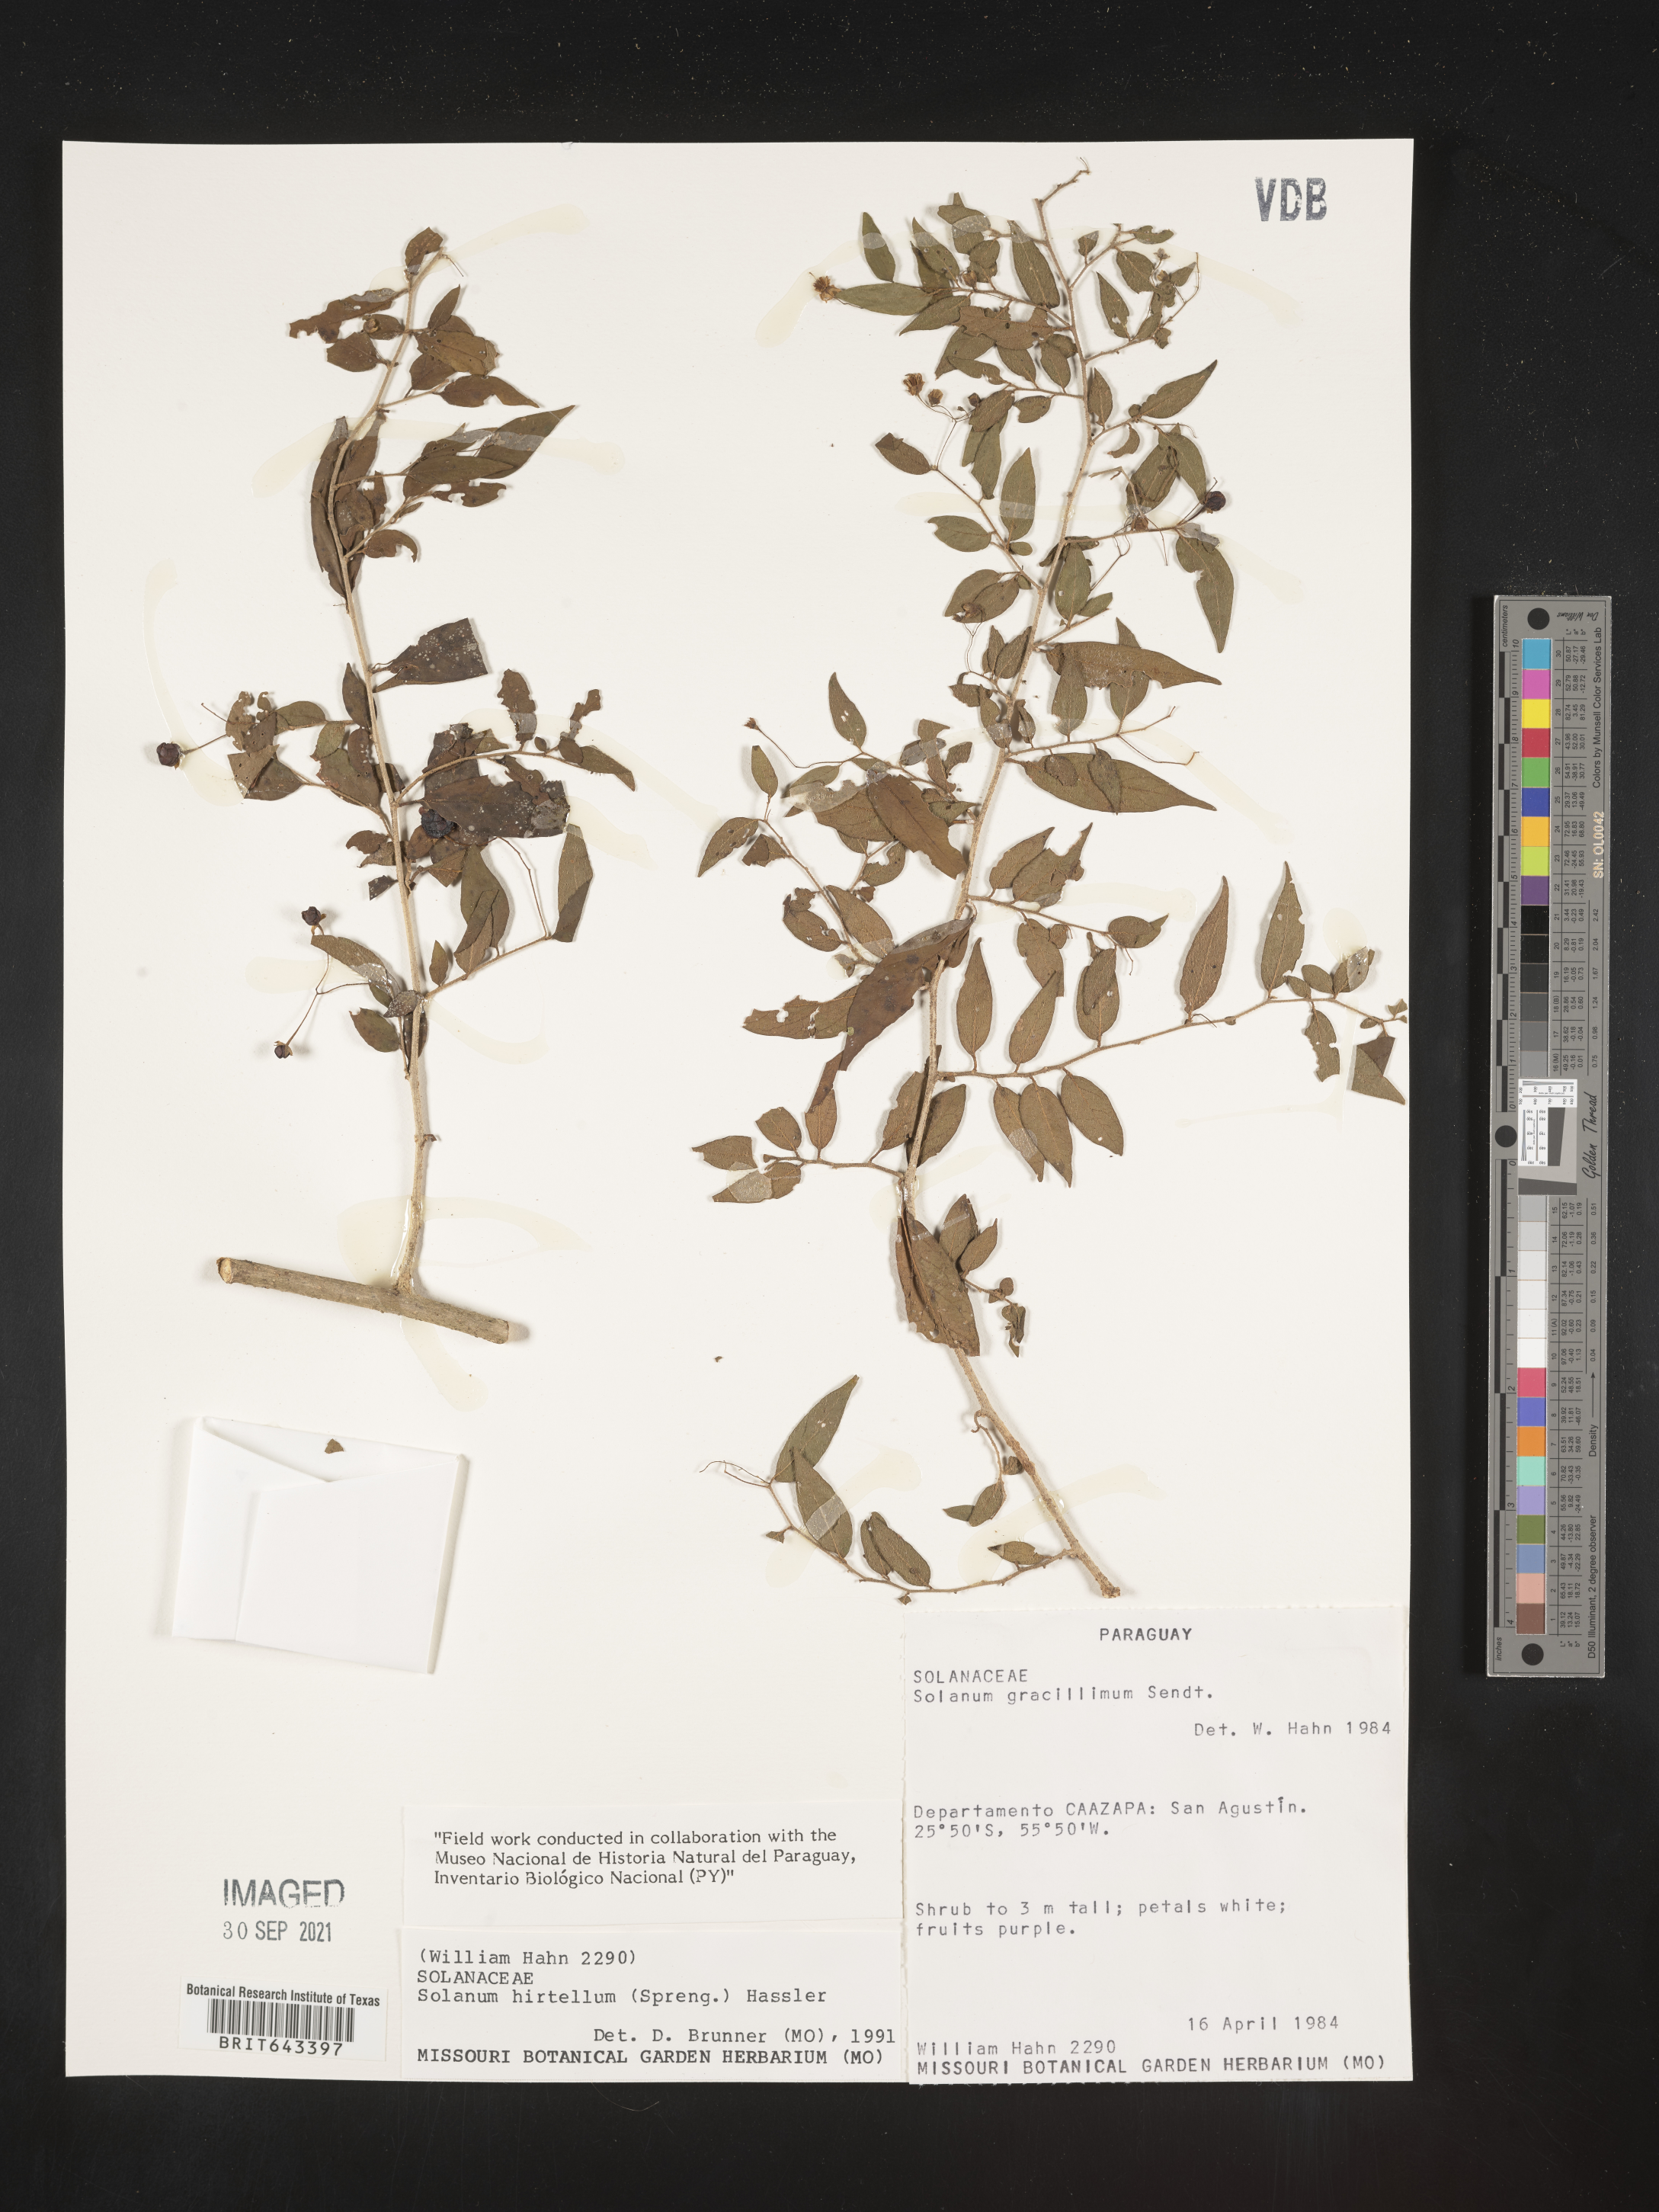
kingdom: Plantae
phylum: Tracheophyta
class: Magnoliopsida
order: Solanales
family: Solanaceae
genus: Solanum
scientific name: Solanum
